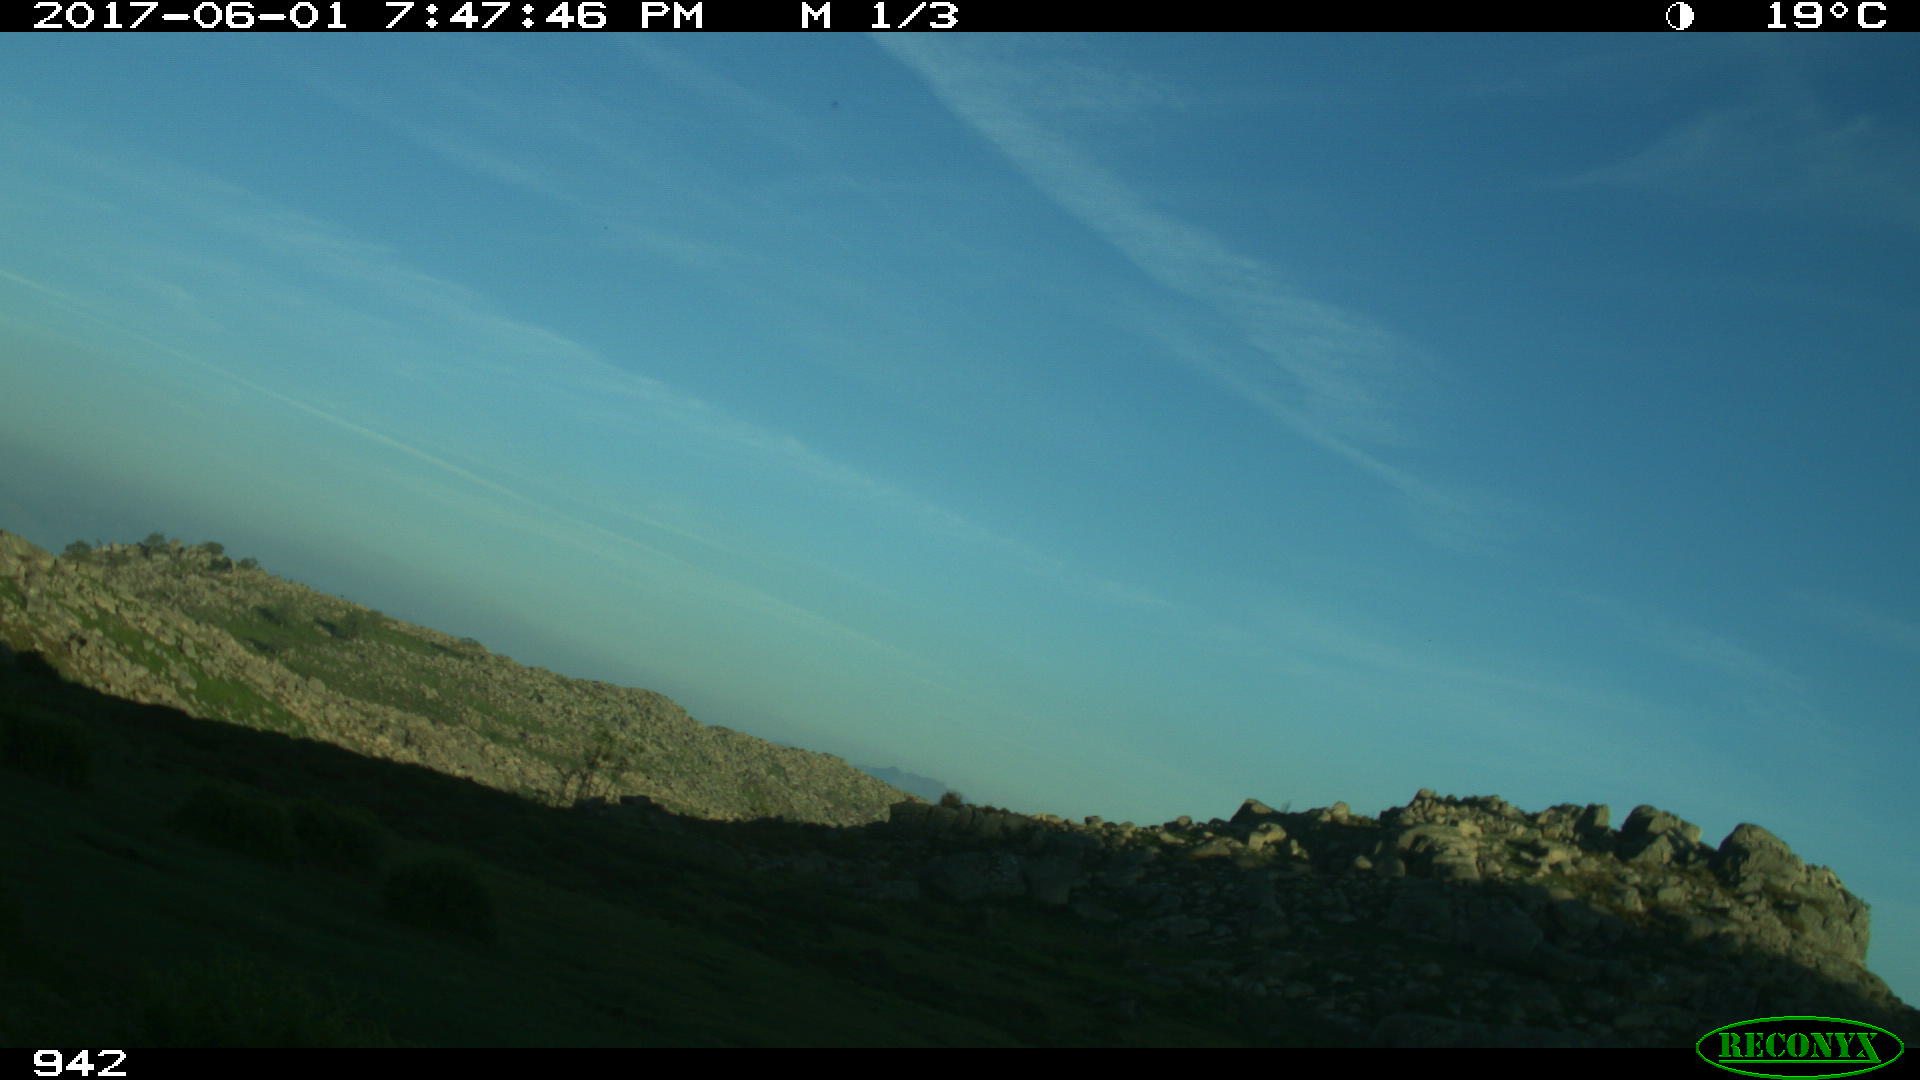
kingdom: Animalia
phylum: Chordata
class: Mammalia
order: Artiodactyla
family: Bovidae
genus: Bos
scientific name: Bos taurus
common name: Domesticated cattle
